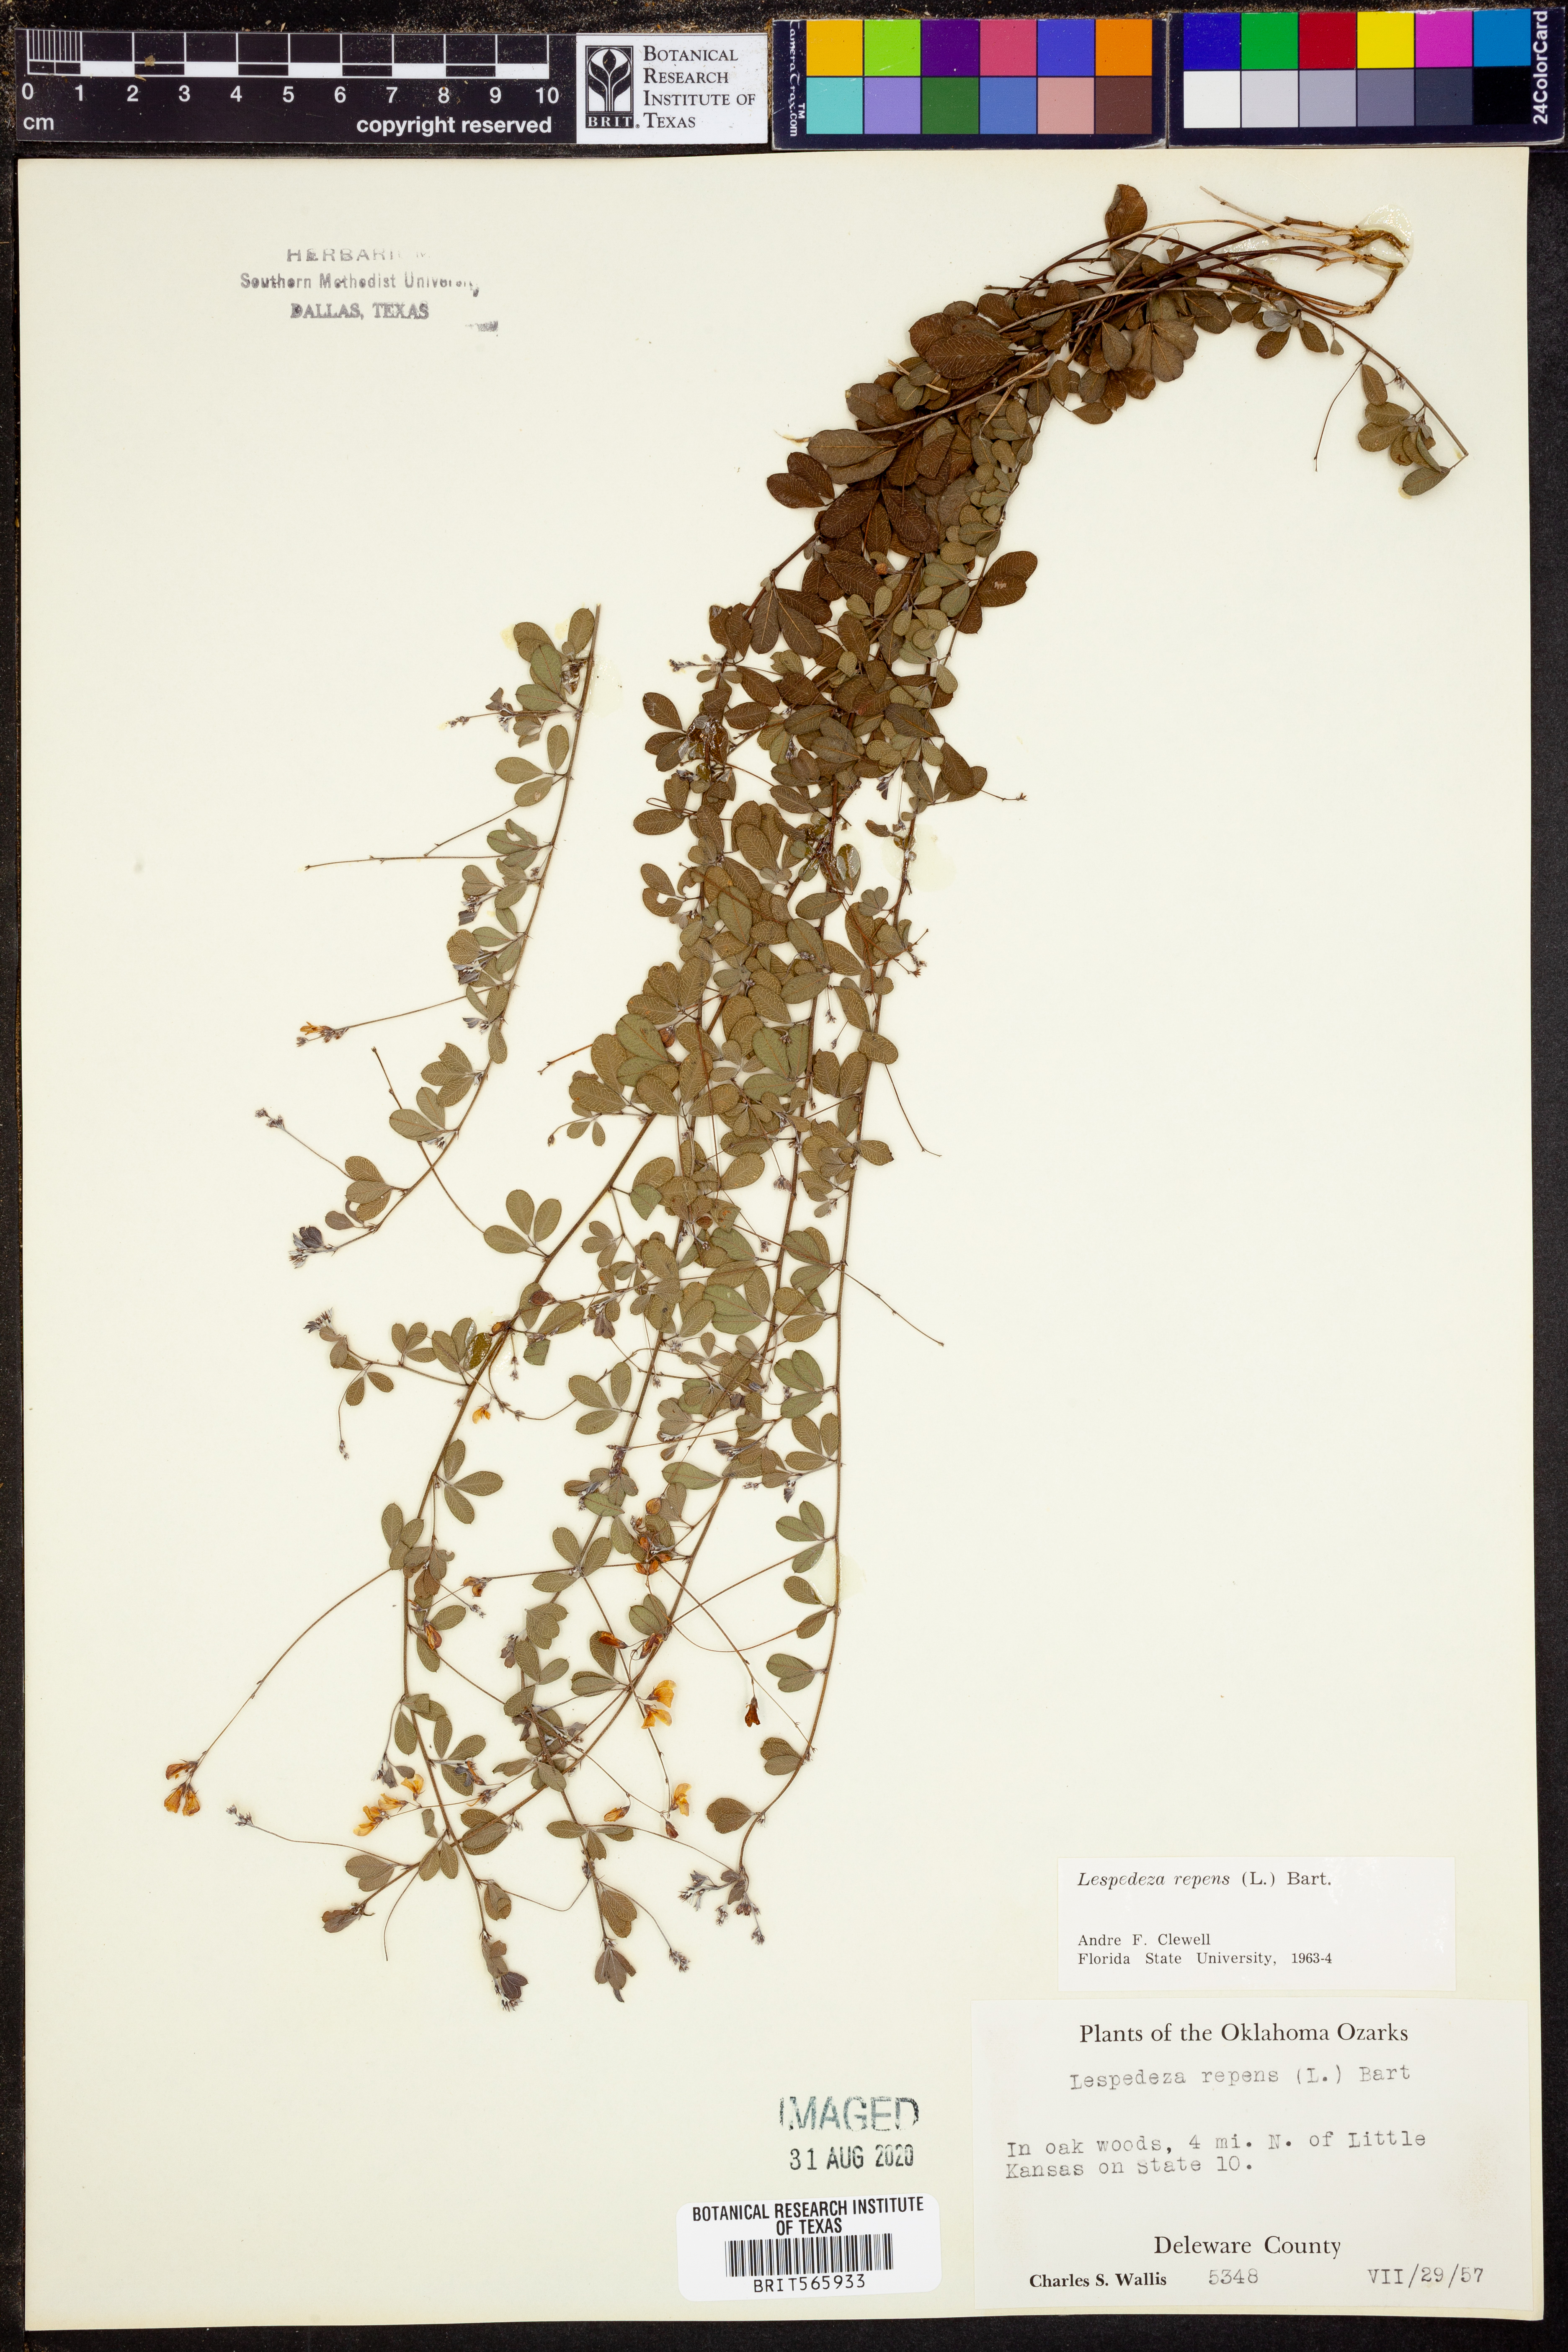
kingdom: Plantae
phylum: Tracheophyta
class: Magnoliopsida
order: Fabales
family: Fabaceae
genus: Lespedeza
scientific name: Lespedeza repens
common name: Creeping bush-clover
